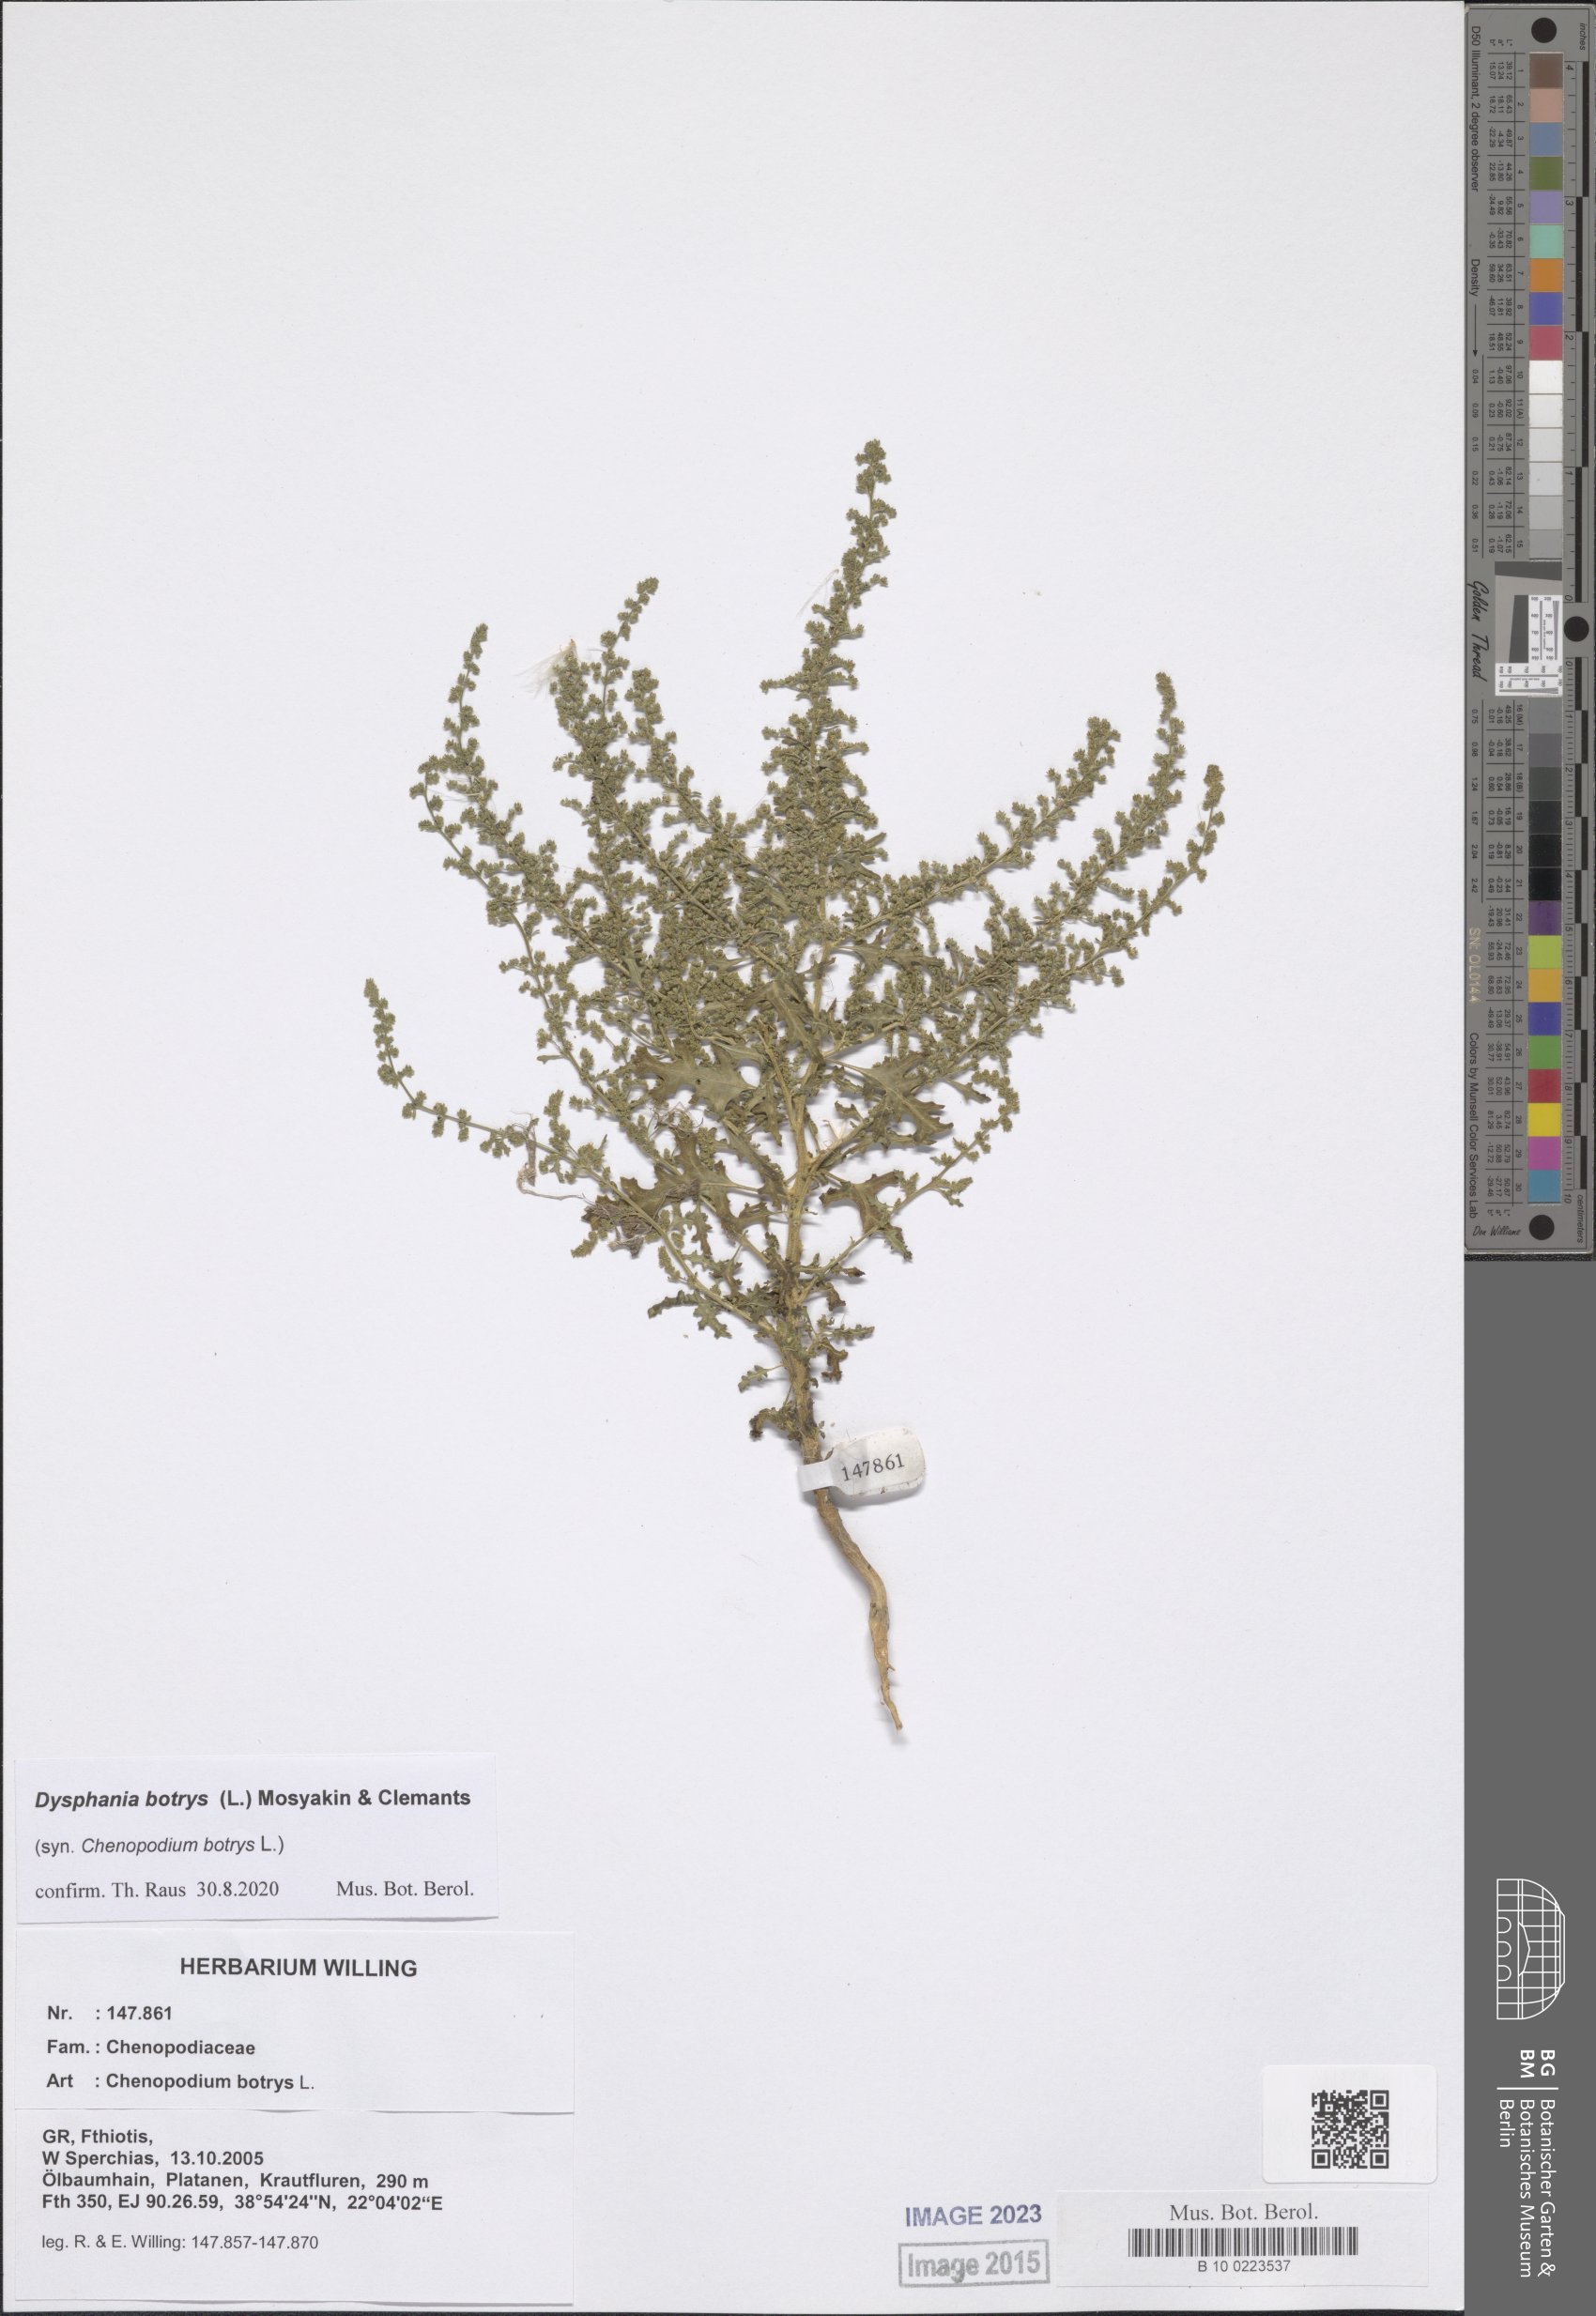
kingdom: Plantae
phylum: Tracheophyta
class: Magnoliopsida
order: Caryophyllales
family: Amaranthaceae
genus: Dysphania
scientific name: Dysphania botrys
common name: Feather-geranium
